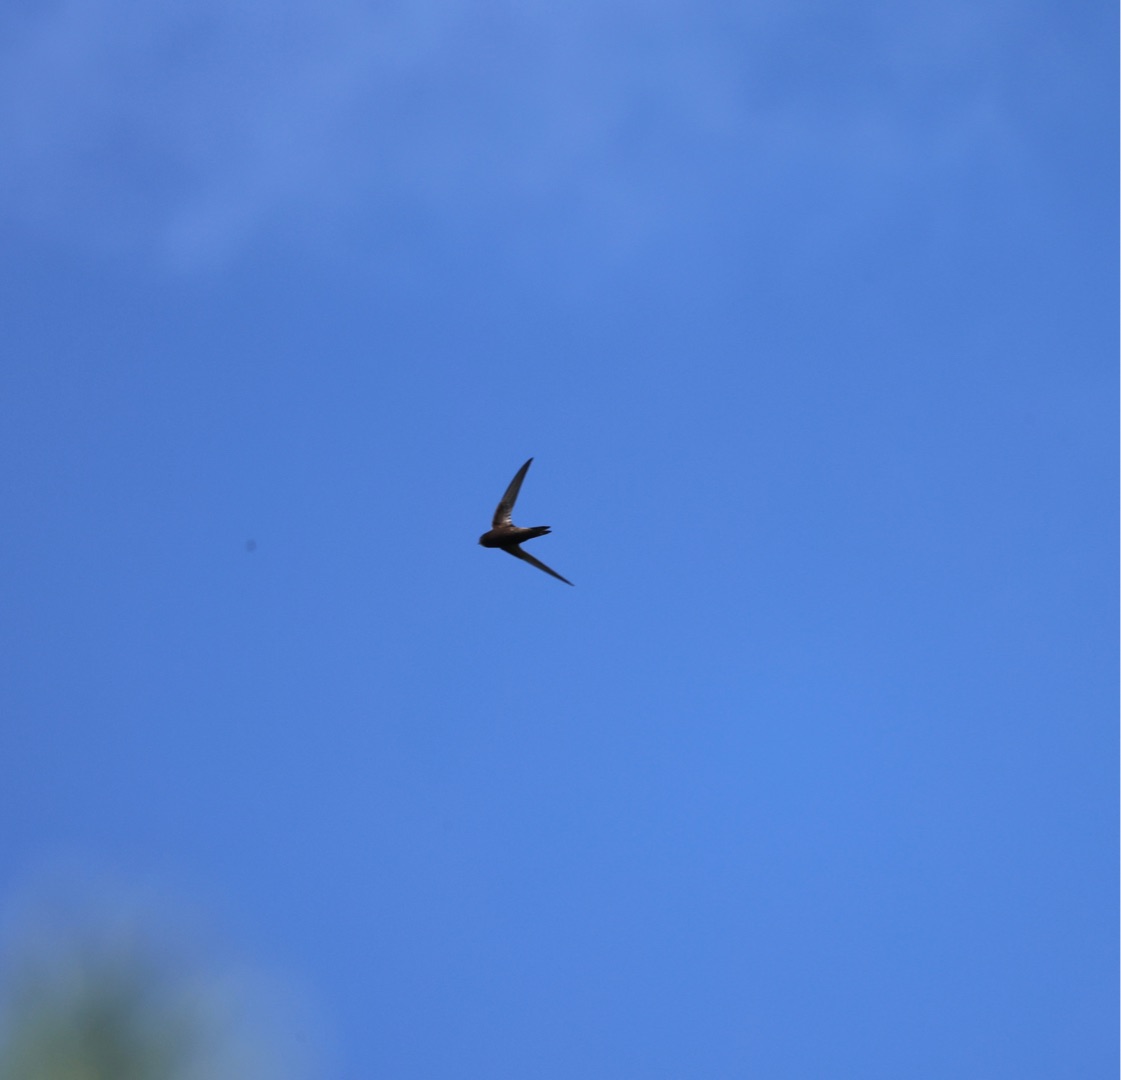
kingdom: Animalia
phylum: Chordata
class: Aves
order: Apodiformes
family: Apodidae
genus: Apus
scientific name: Apus apus
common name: Mursejler
